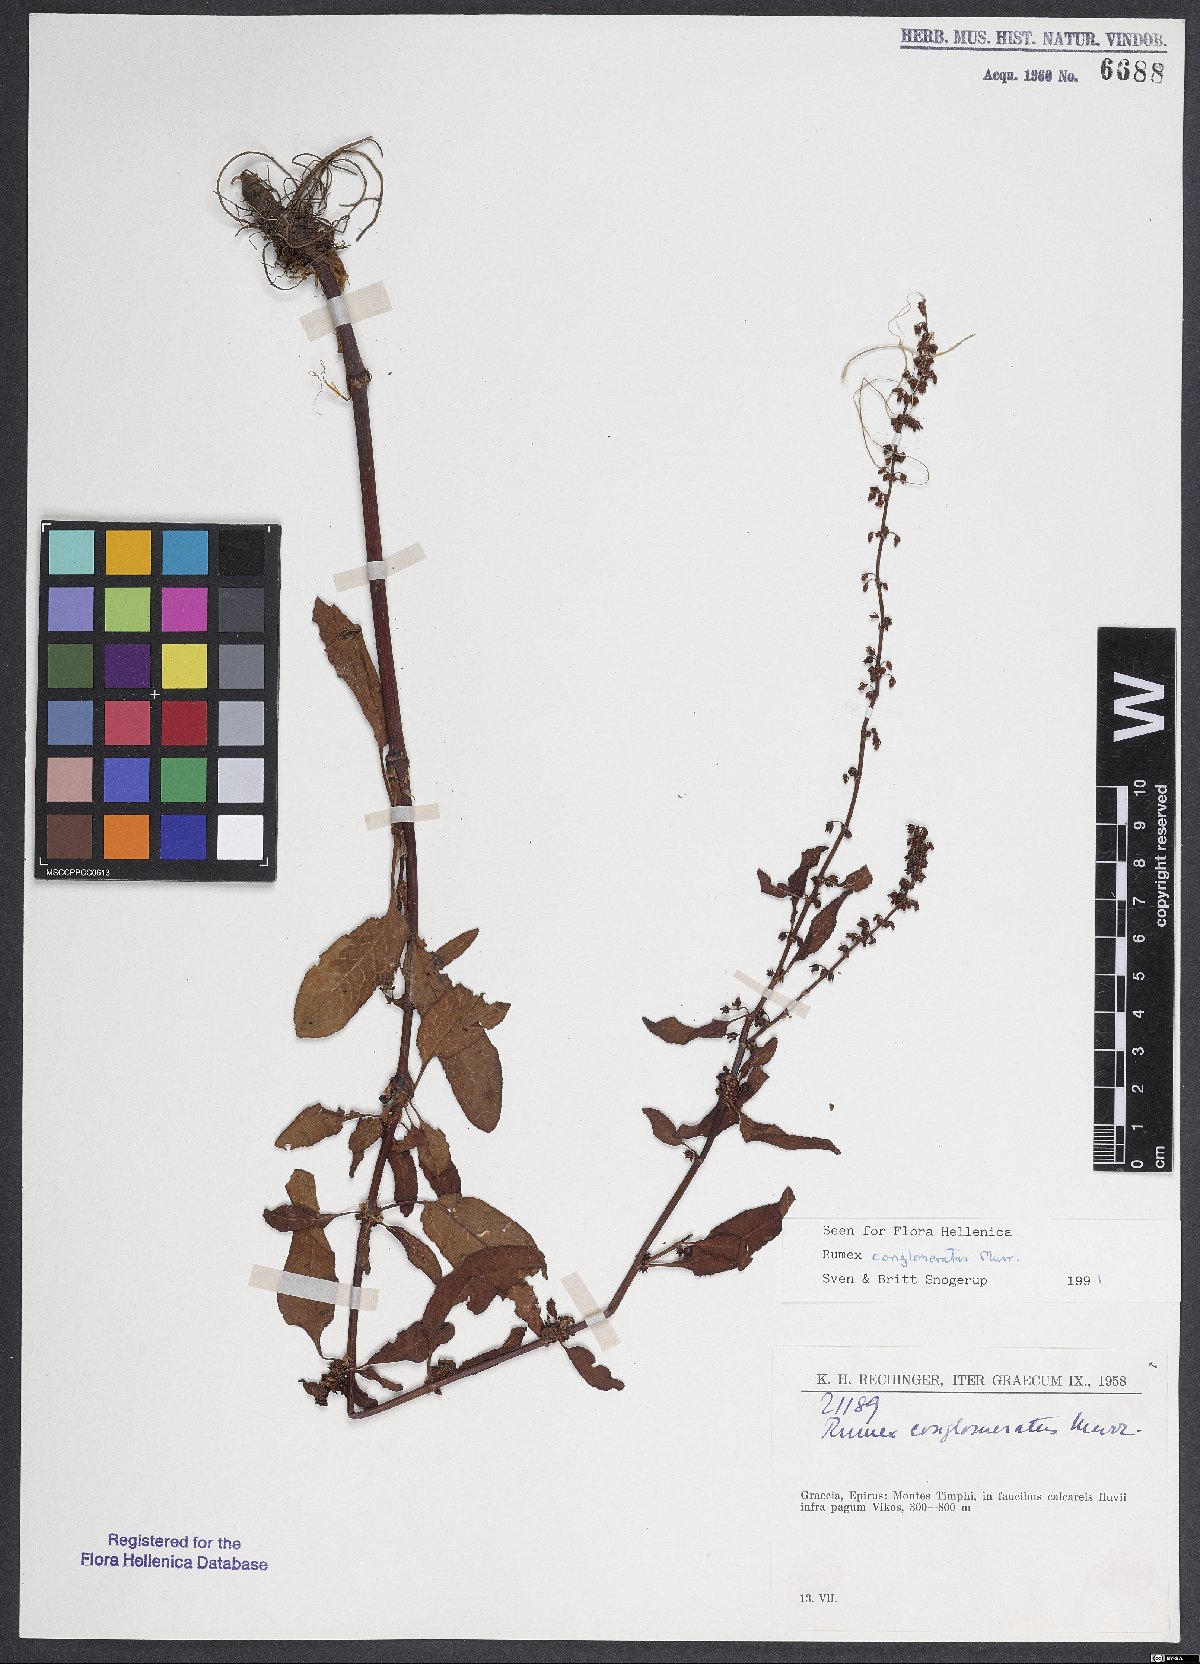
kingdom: Plantae
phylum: Tracheophyta
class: Magnoliopsida
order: Caryophyllales
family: Polygonaceae
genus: Rumex
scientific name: Rumex conglomeratus
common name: Clustered dock
